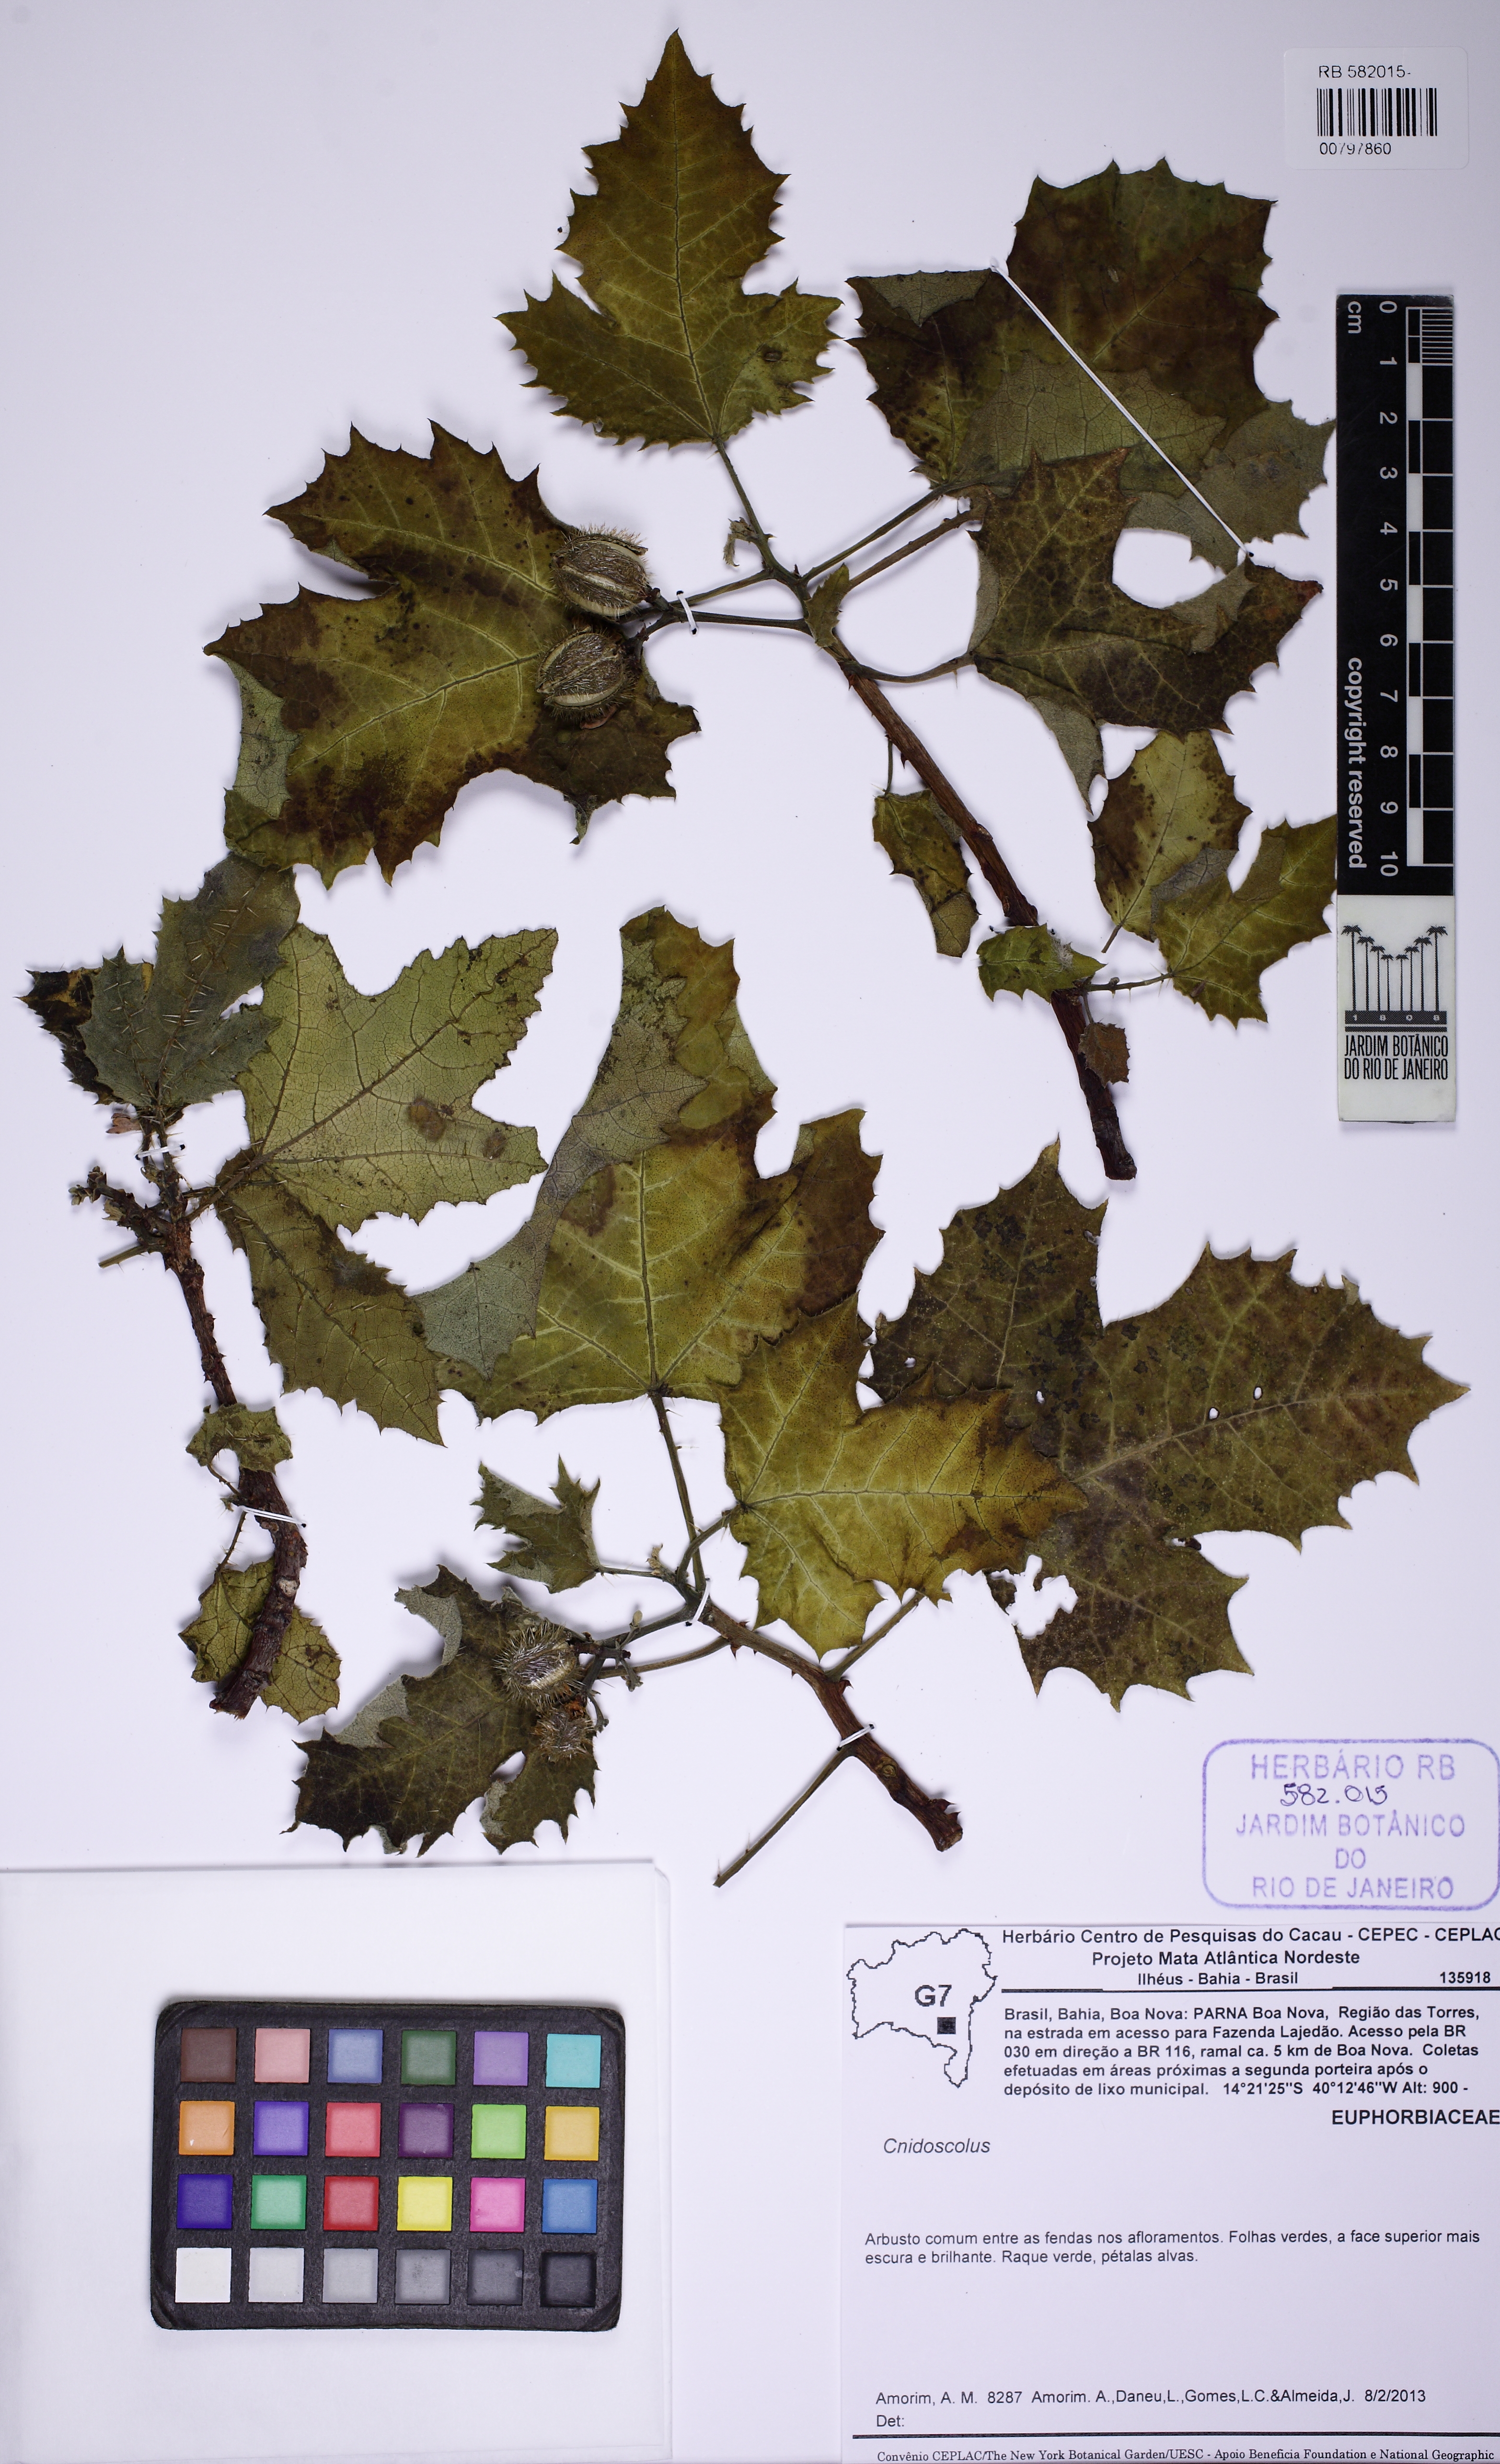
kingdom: Plantae
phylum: Tracheophyta
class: Magnoliopsida
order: Malpighiales
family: Euphorbiaceae
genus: Cnidoscolus
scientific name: Cnidoscolus
